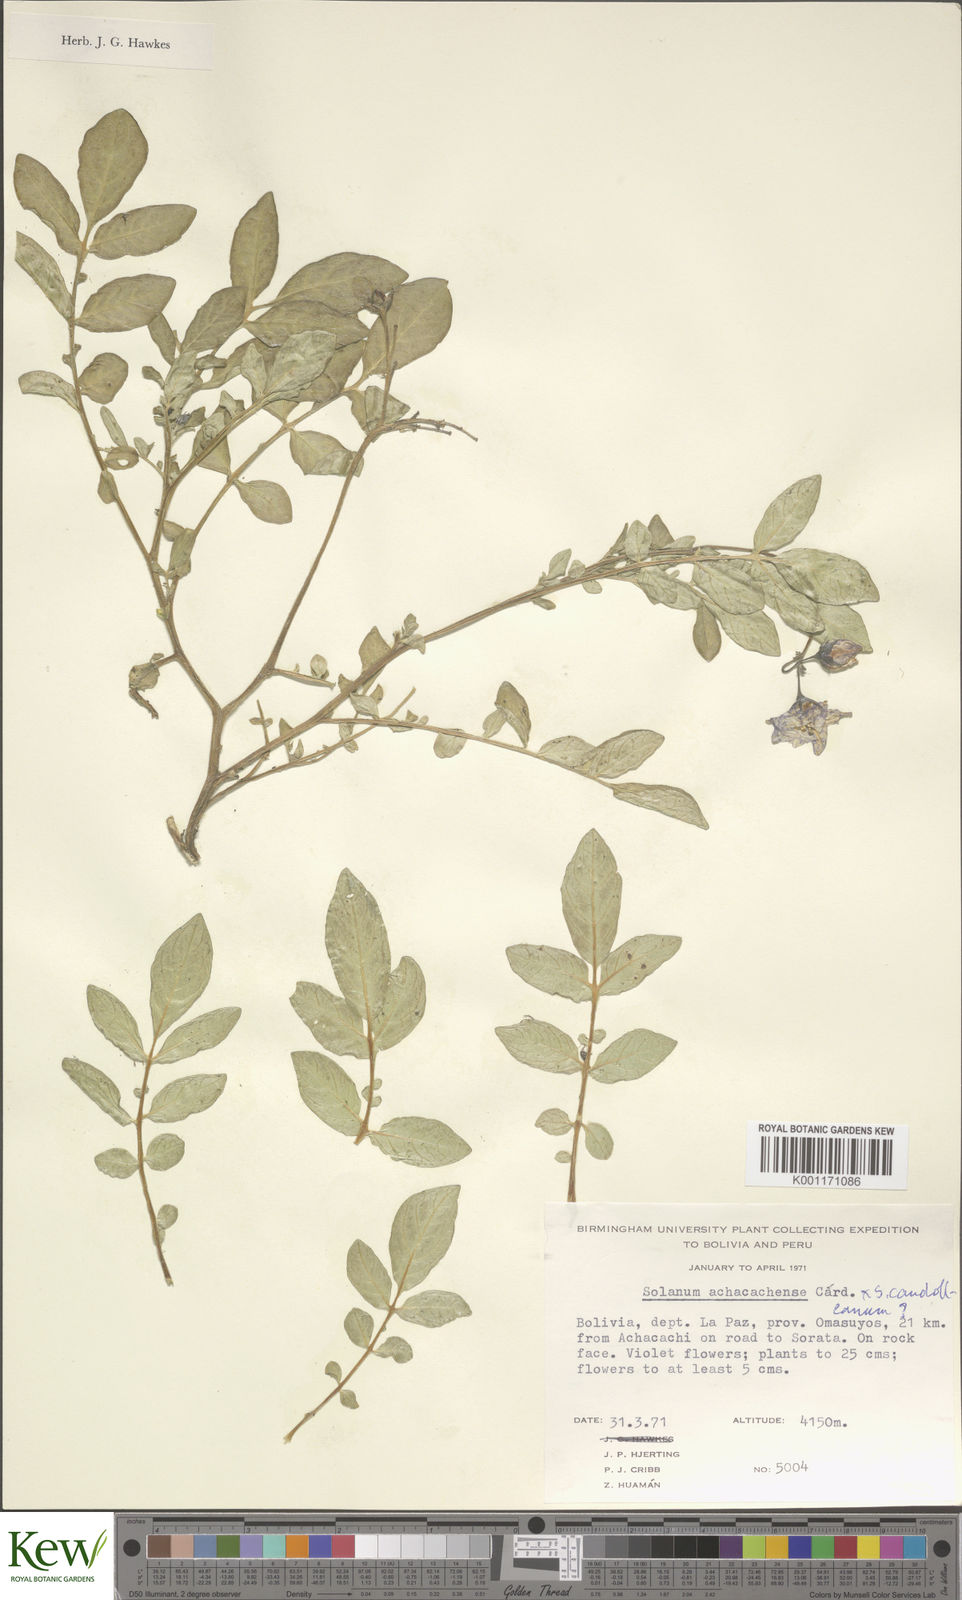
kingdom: Plantae
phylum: Tracheophyta
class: Magnoliopsida
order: Solanales
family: Solanaceae
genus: Solanum
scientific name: Solanum
